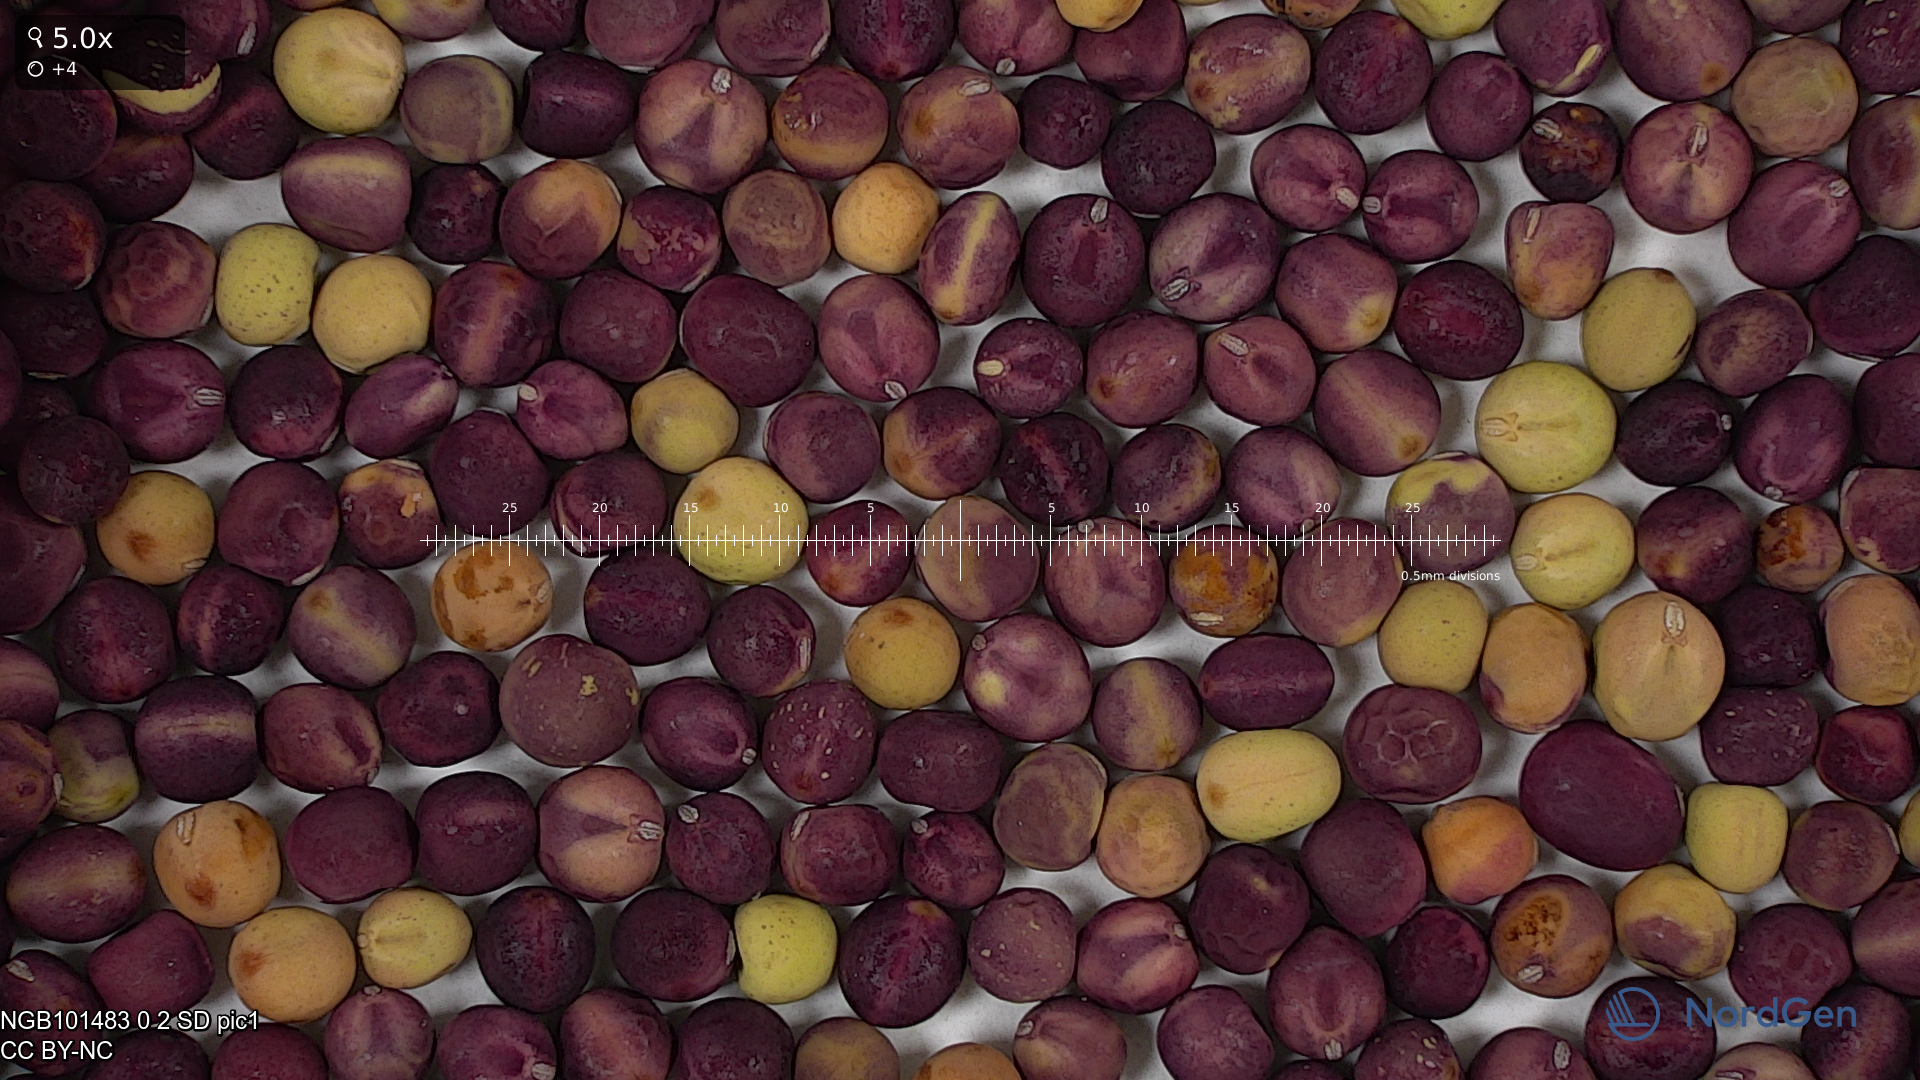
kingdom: Plantae
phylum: Tracheophyta
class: Magnoliopsida
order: Fabales
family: Fabaceae
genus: Lathyrus
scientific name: Lathyrus oleraceus
